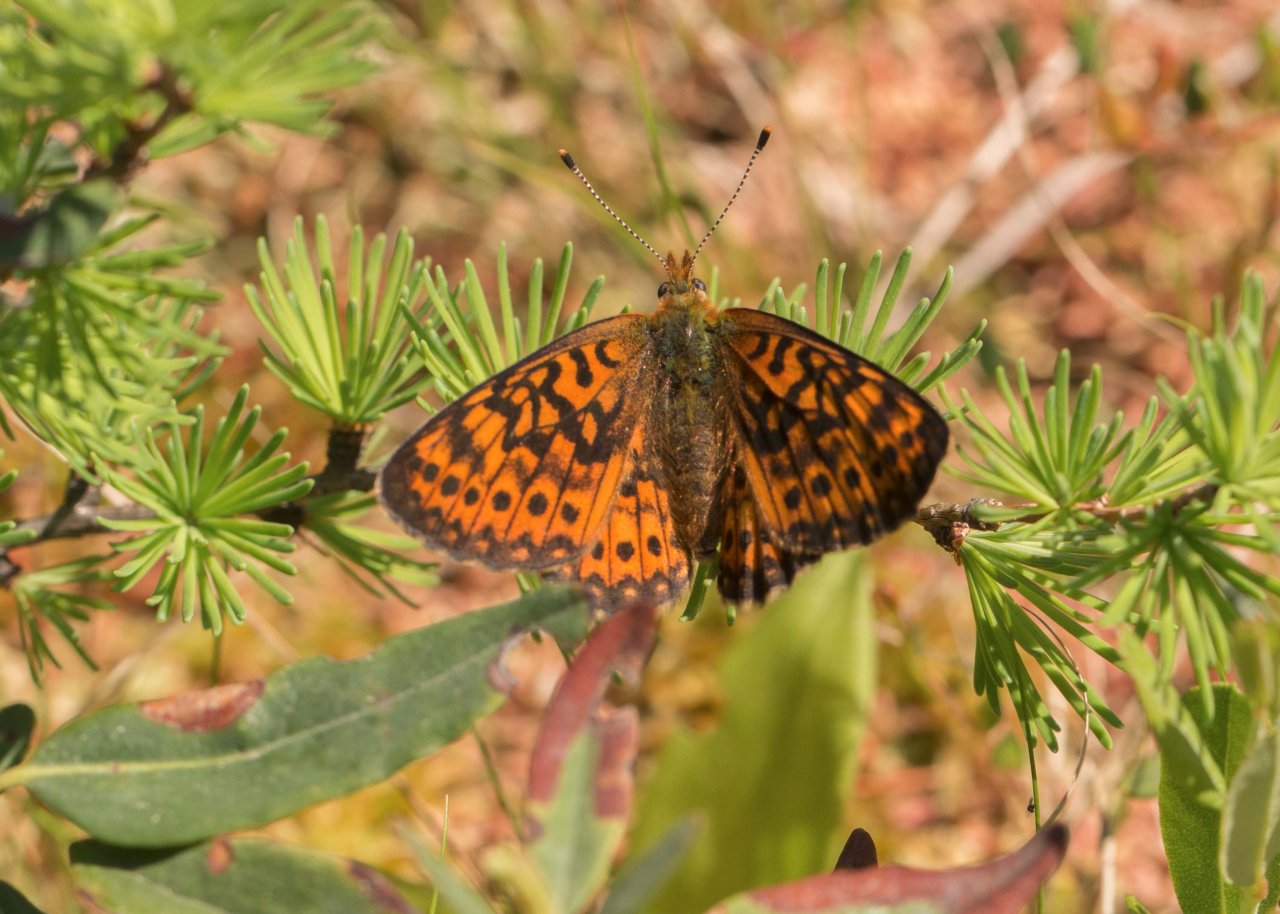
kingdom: Animalia
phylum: Arthropoda
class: Insecta
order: Lepidoptera
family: Nymphalidae
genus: Boloria
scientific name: Boloria eunomia
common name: Bog Fritillary
